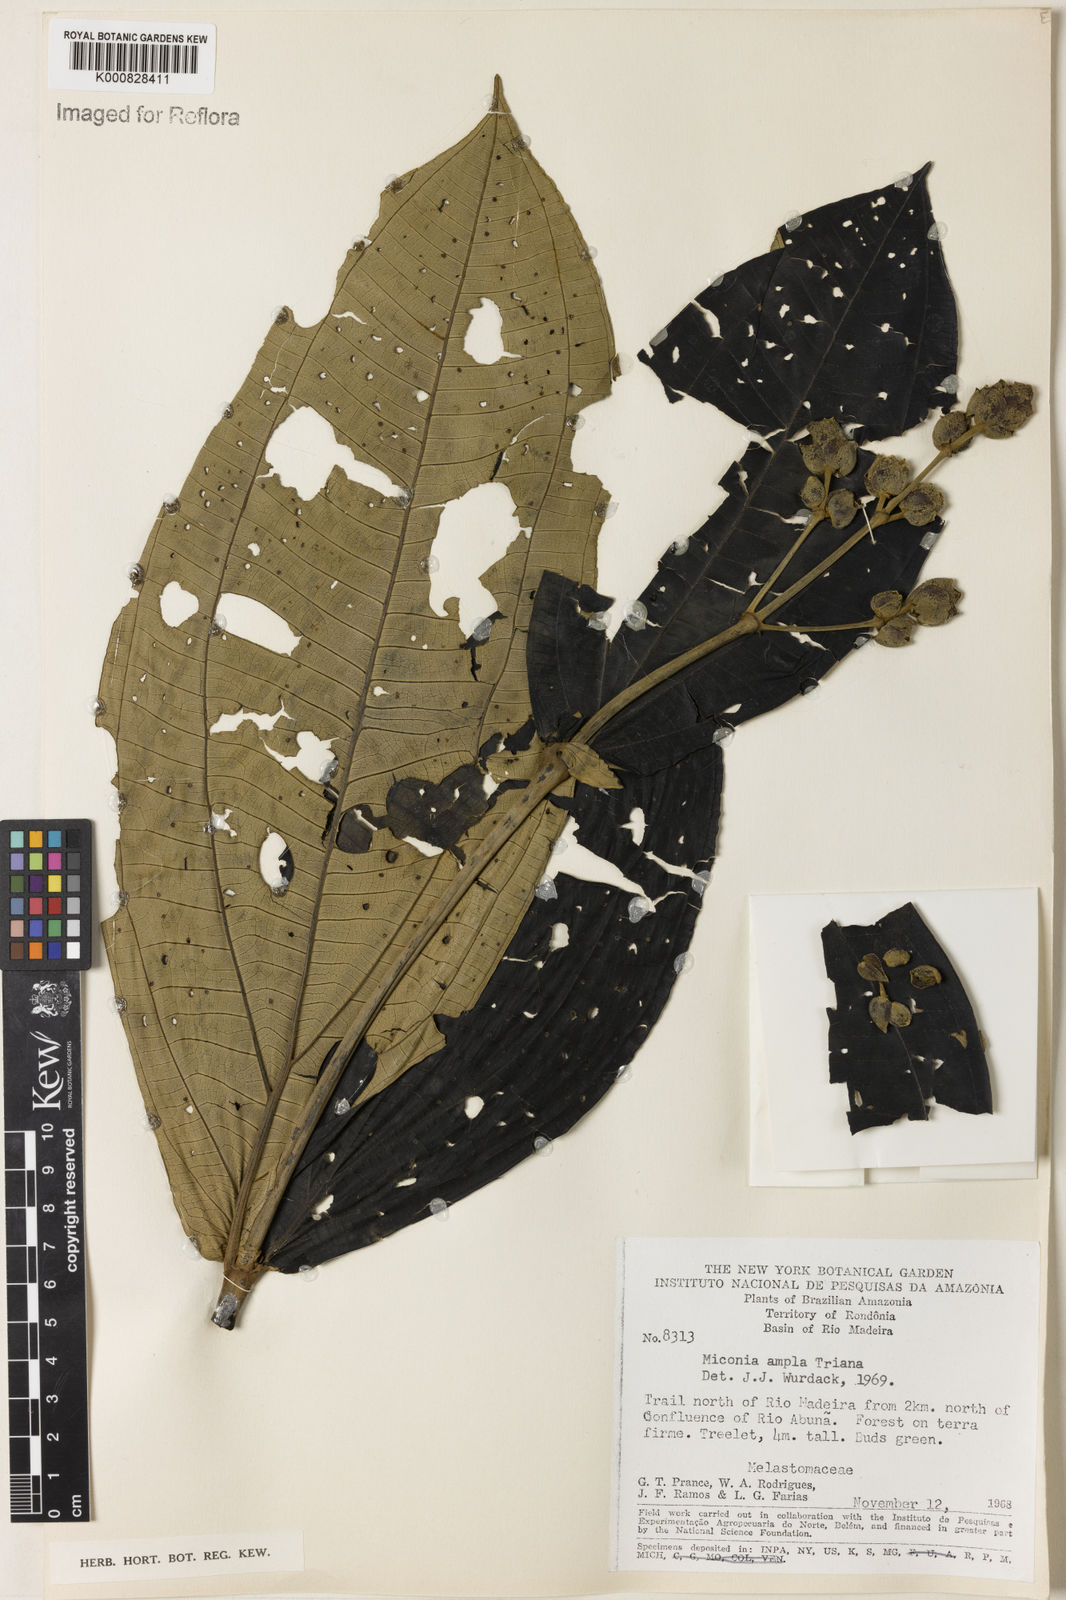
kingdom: Plantae
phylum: Tracheophyta
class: Magnoliopsida
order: Myrtales
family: Melastomataceae
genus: Miconia
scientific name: Miconia ampla
